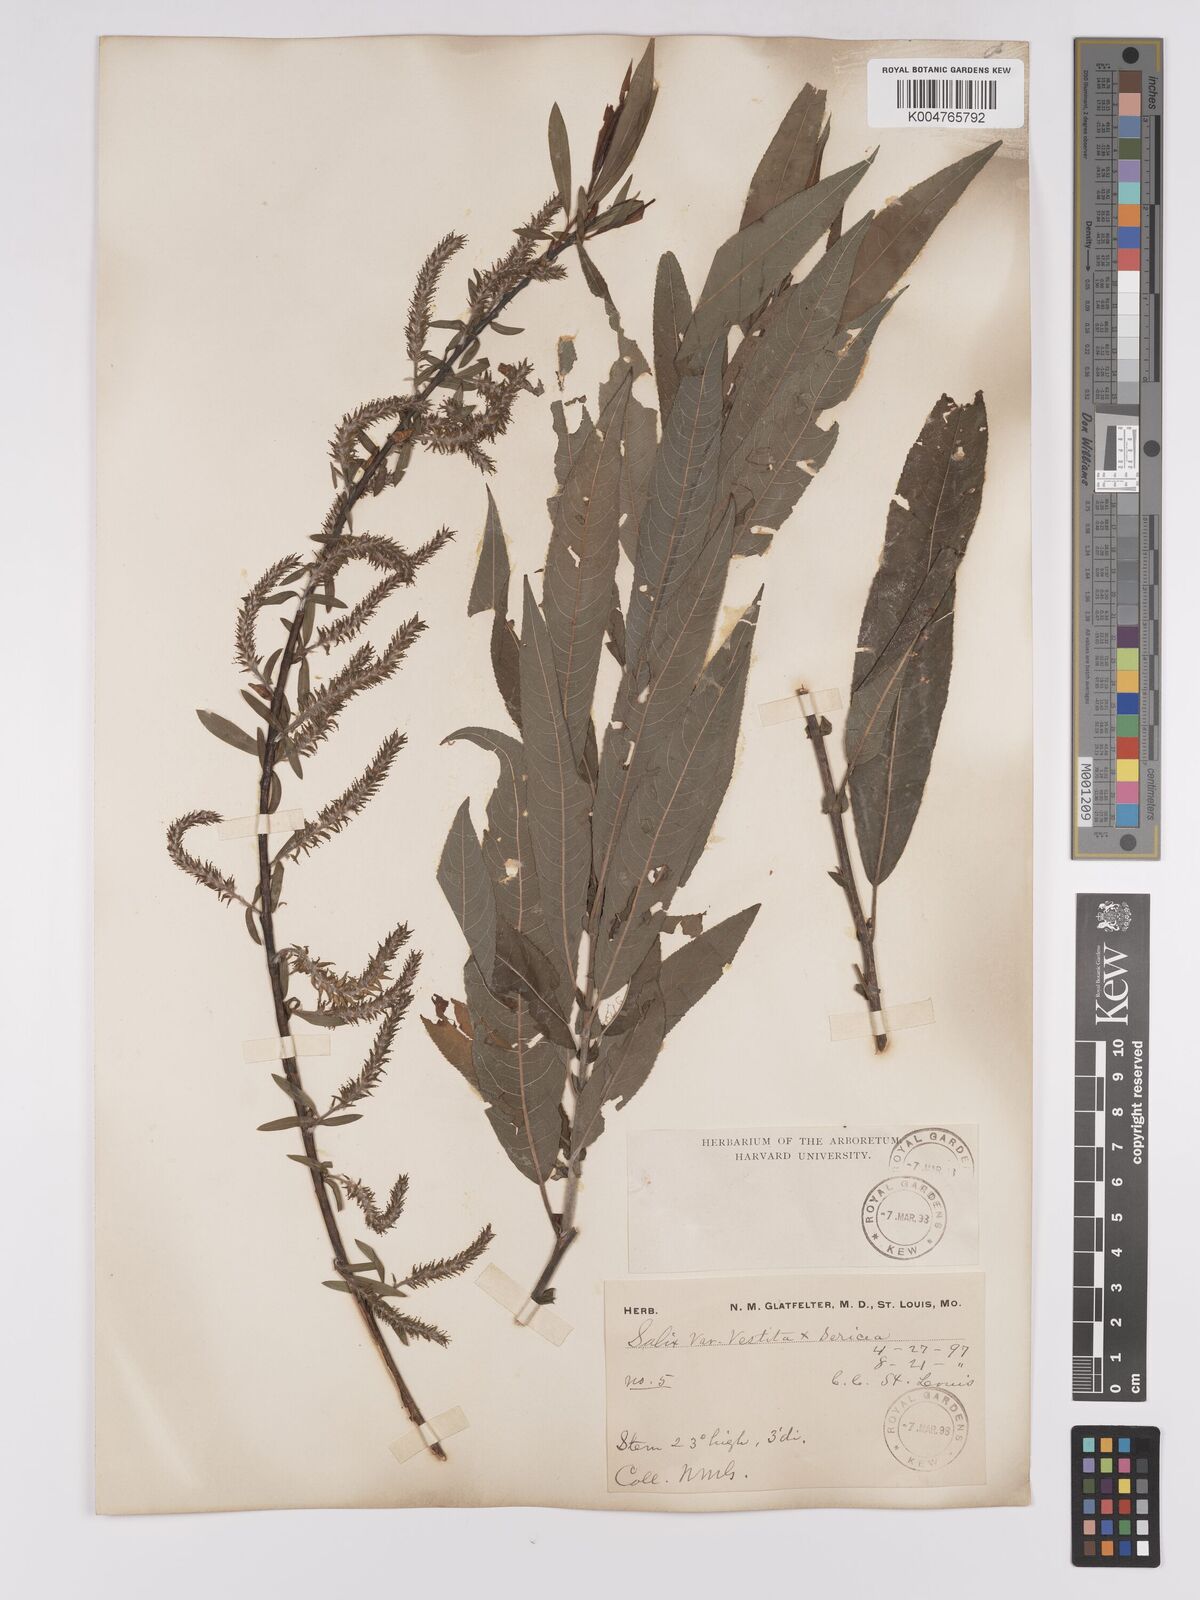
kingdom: Plantae
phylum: Tracheophyta
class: Magnoliopsida
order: Malpighiales
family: Salicaceae
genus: Salix
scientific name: Salix vestita
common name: Hairy willow
